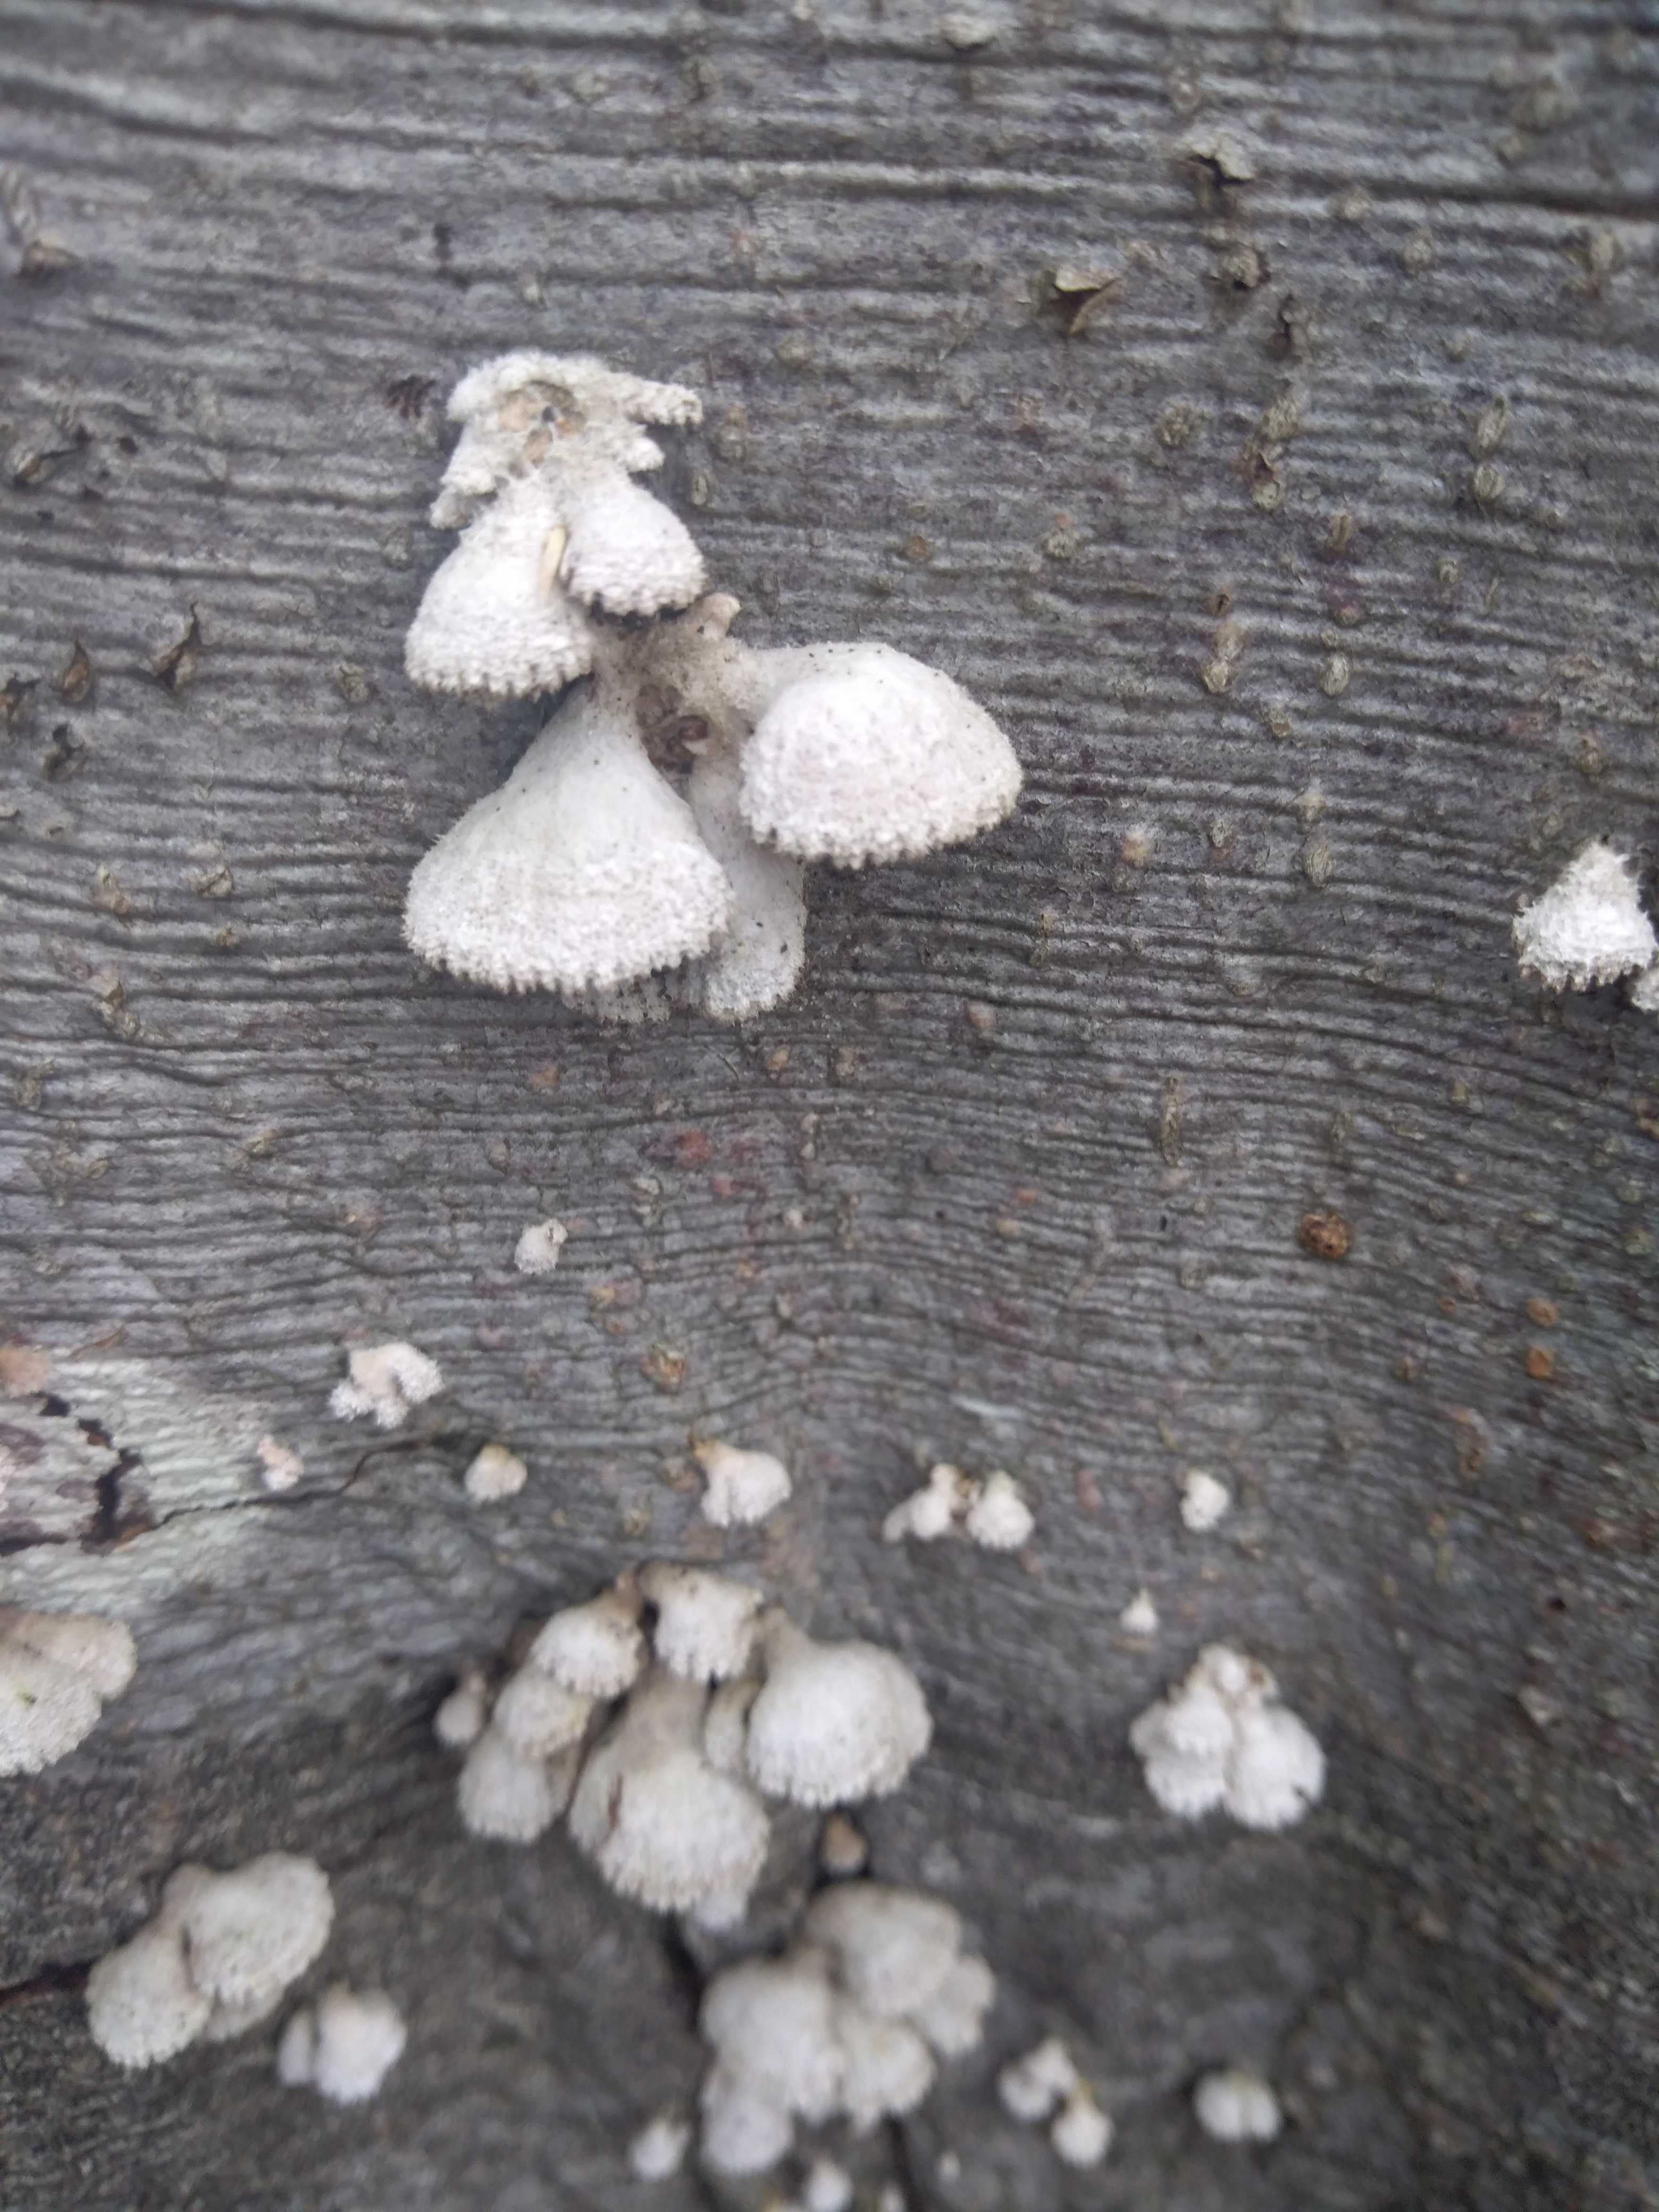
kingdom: Fungi
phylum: Basidiomycota
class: Agaricomycetes
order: Agaricales
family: Schizophyllaceae
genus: Schizophyllum
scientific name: Schizophyllum commune
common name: kløvblad
